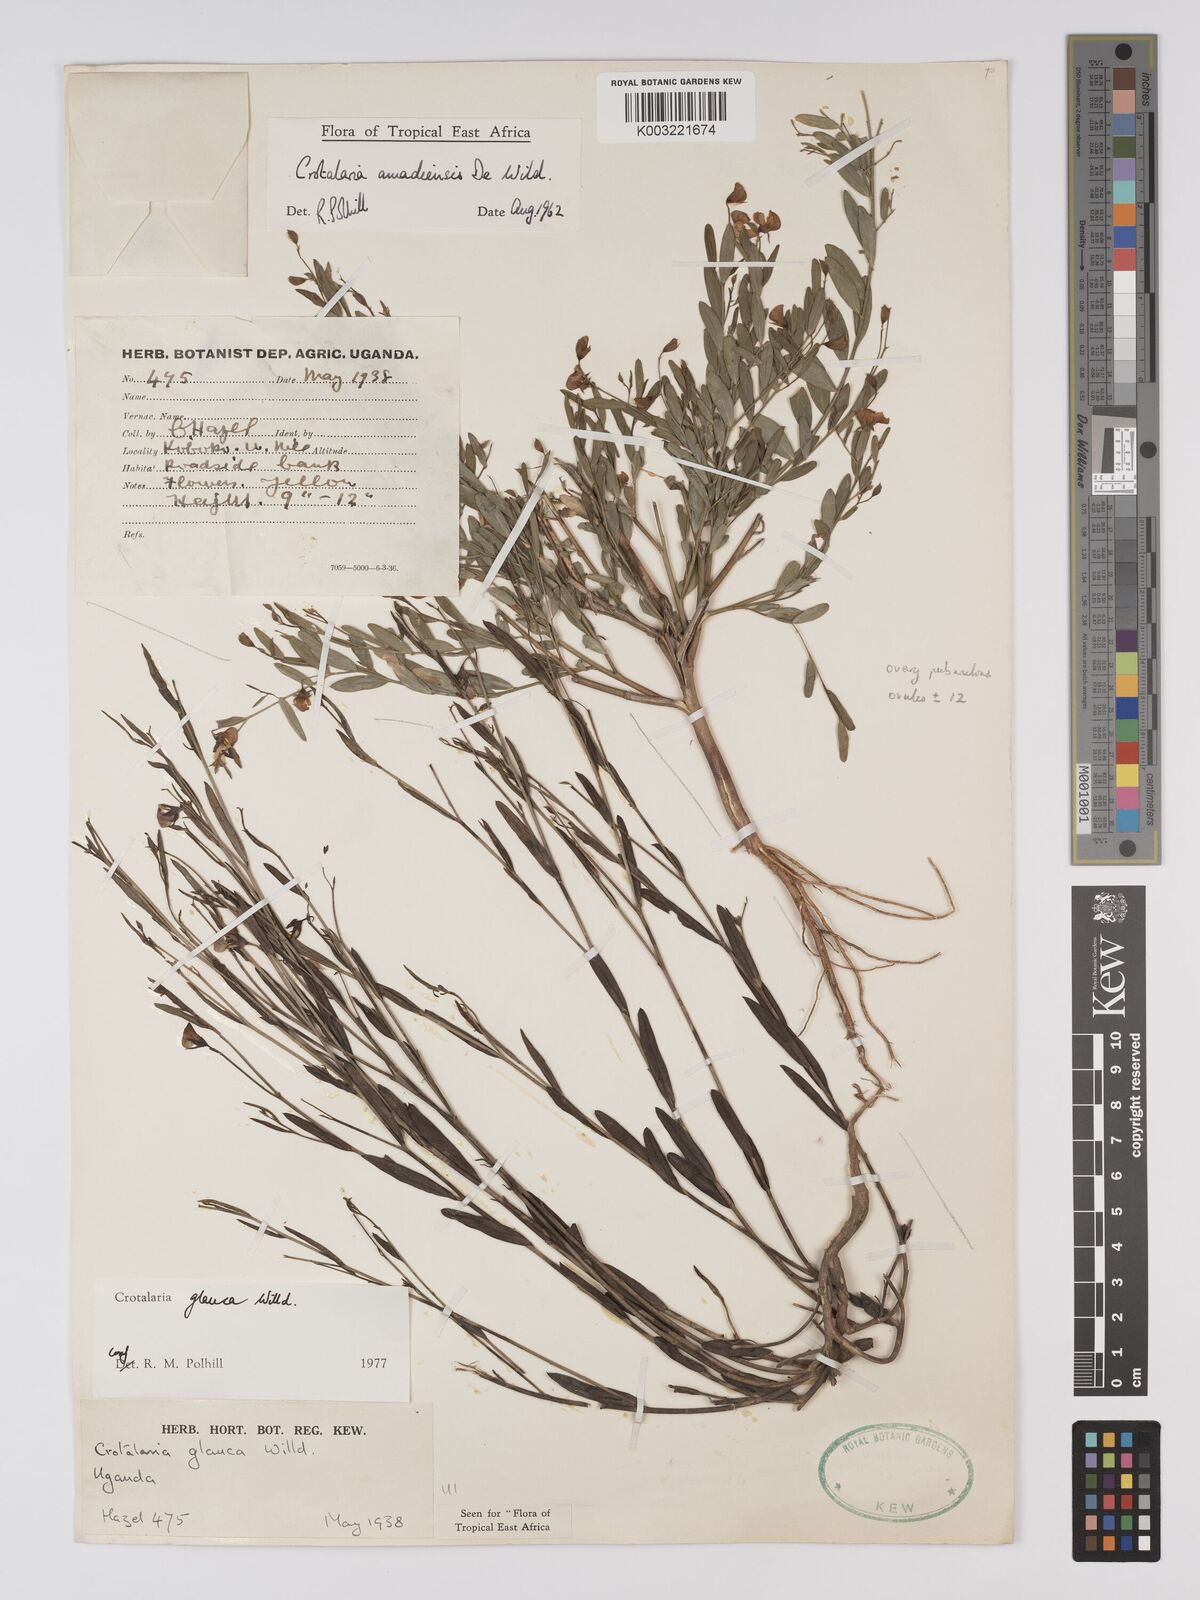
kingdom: Plantae
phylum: Tracheophyta
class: Magnoliopsida
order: Fabales
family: Fabaceae
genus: Crotalaria
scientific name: Crotalaria glauca
